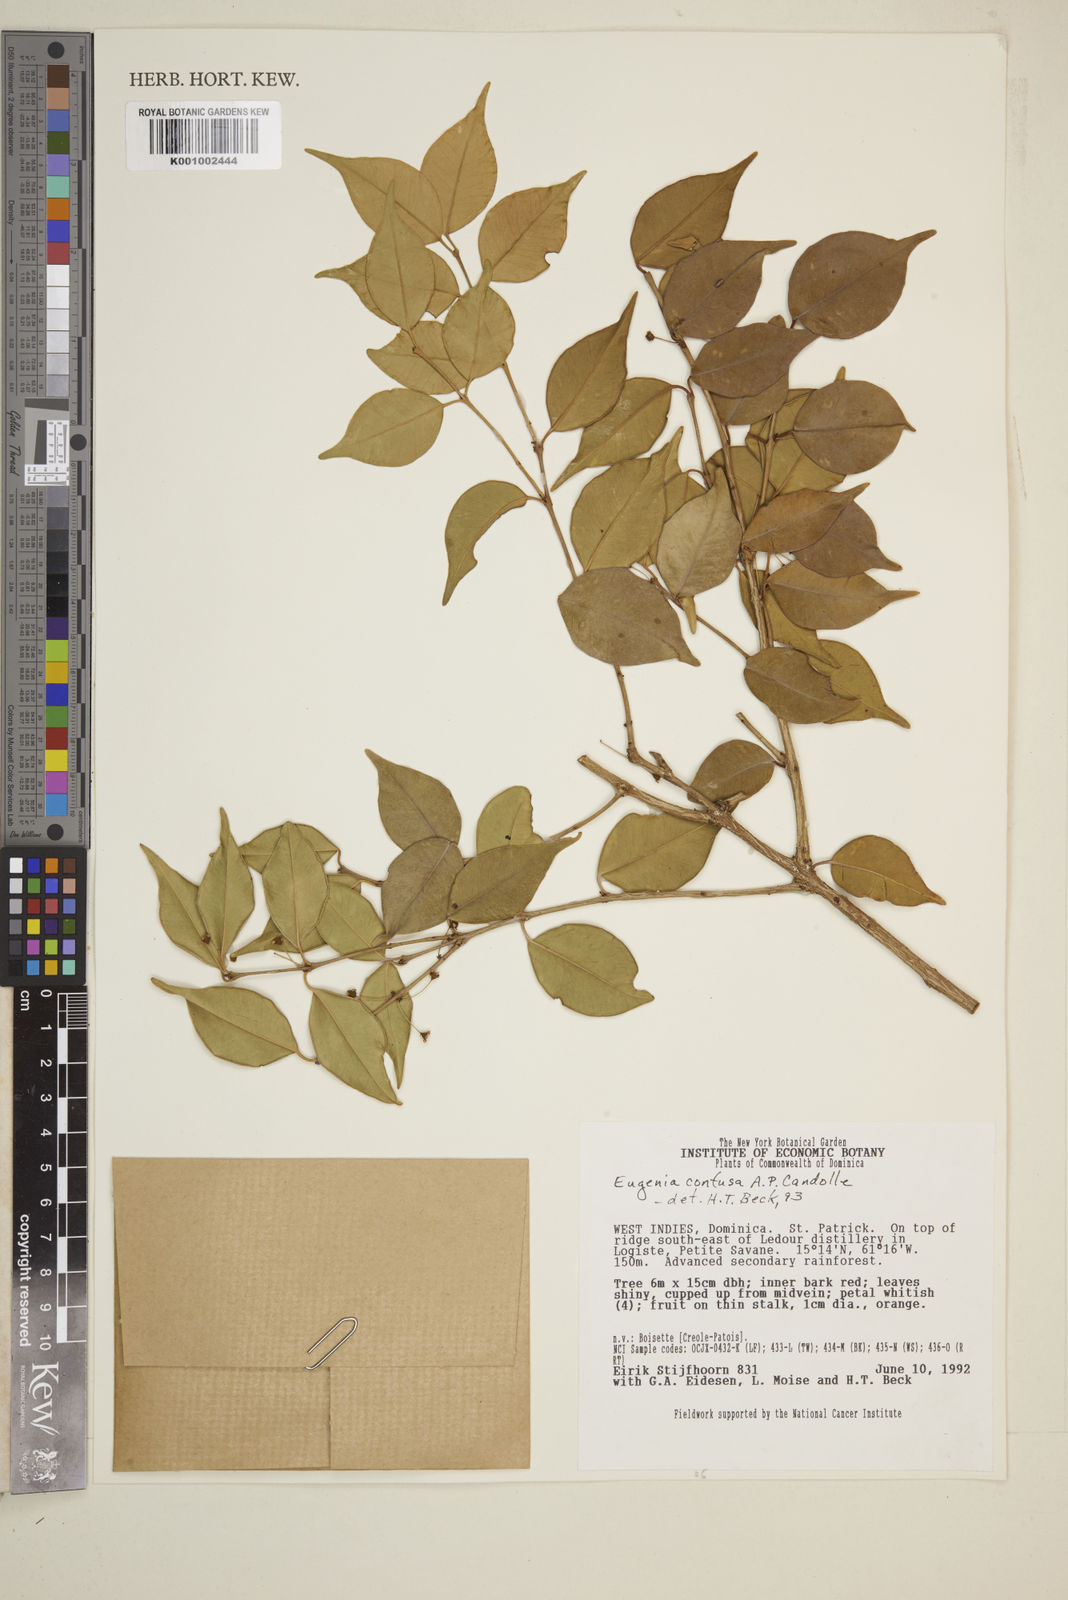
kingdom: Plantae
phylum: Tracheophyta
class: Magnoliopsida
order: Myrtales
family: Myrtaceae
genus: Eugenia
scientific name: Eugenia confusa
